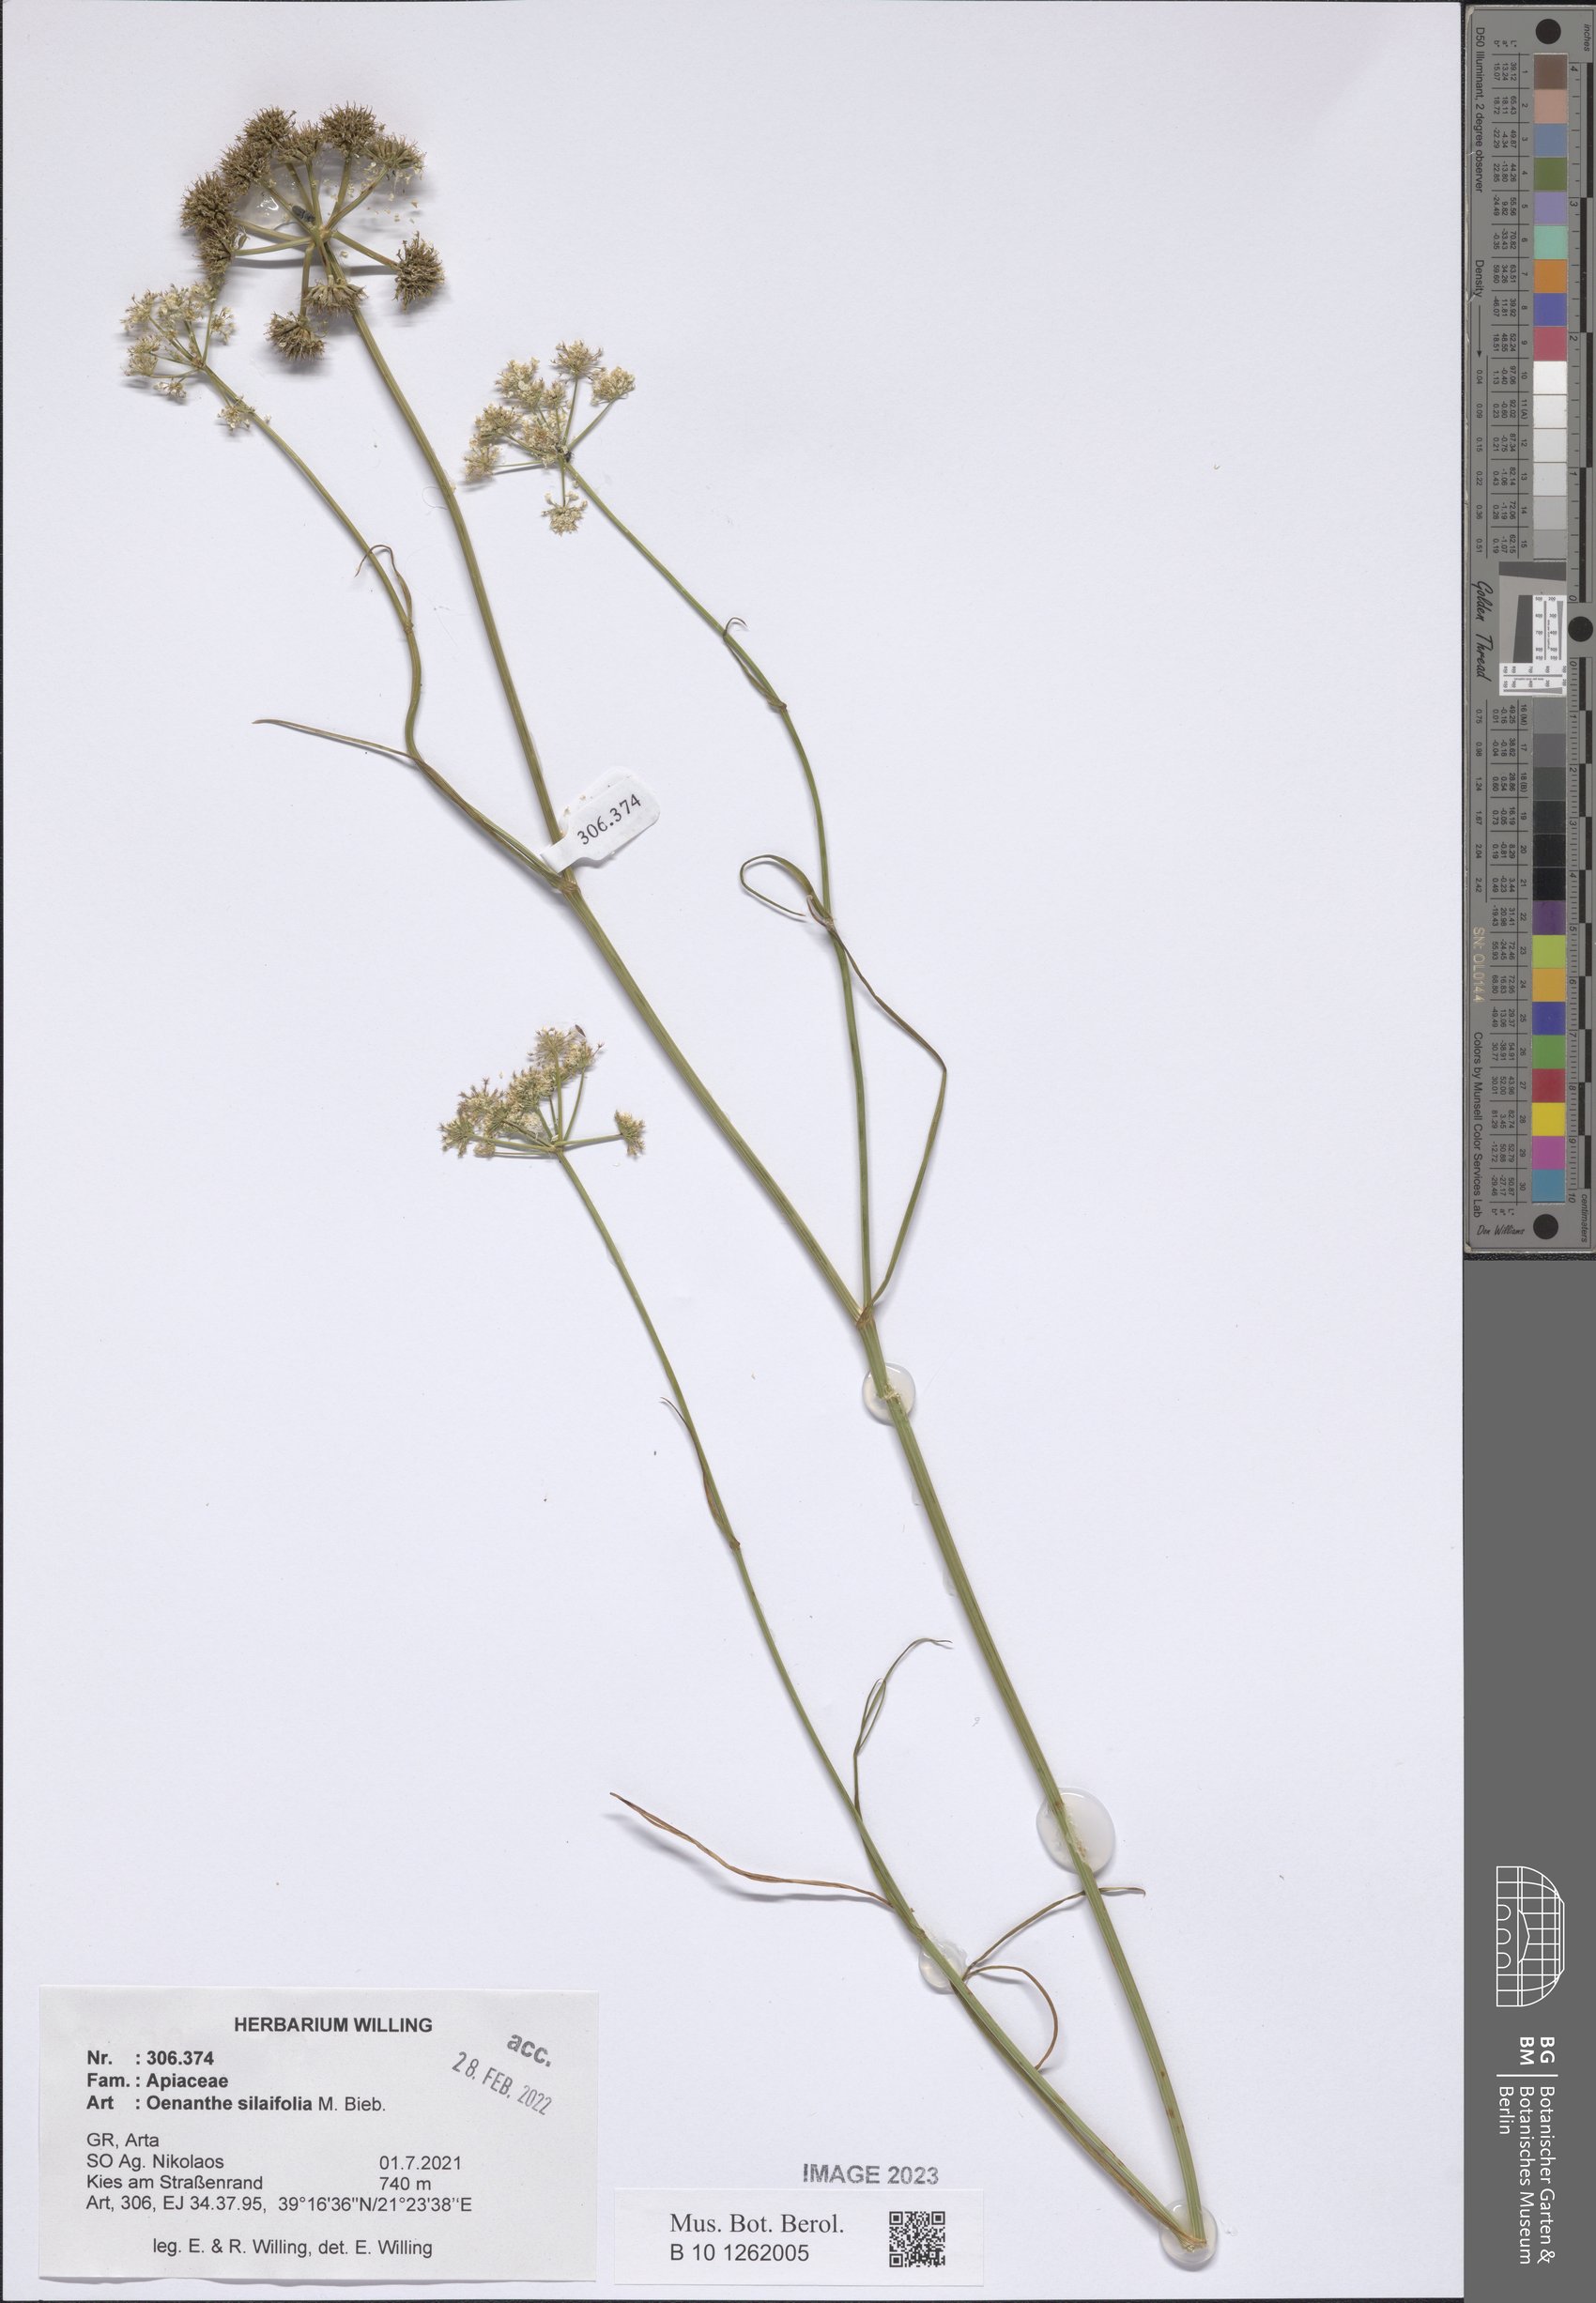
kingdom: Plantae
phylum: Tracheophyta
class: Magnoliopsida
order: Apiales
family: Apiaceae
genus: Oenanthe
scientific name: Oenanthe silaifolia
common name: Narrow-leaved water-dropwort
